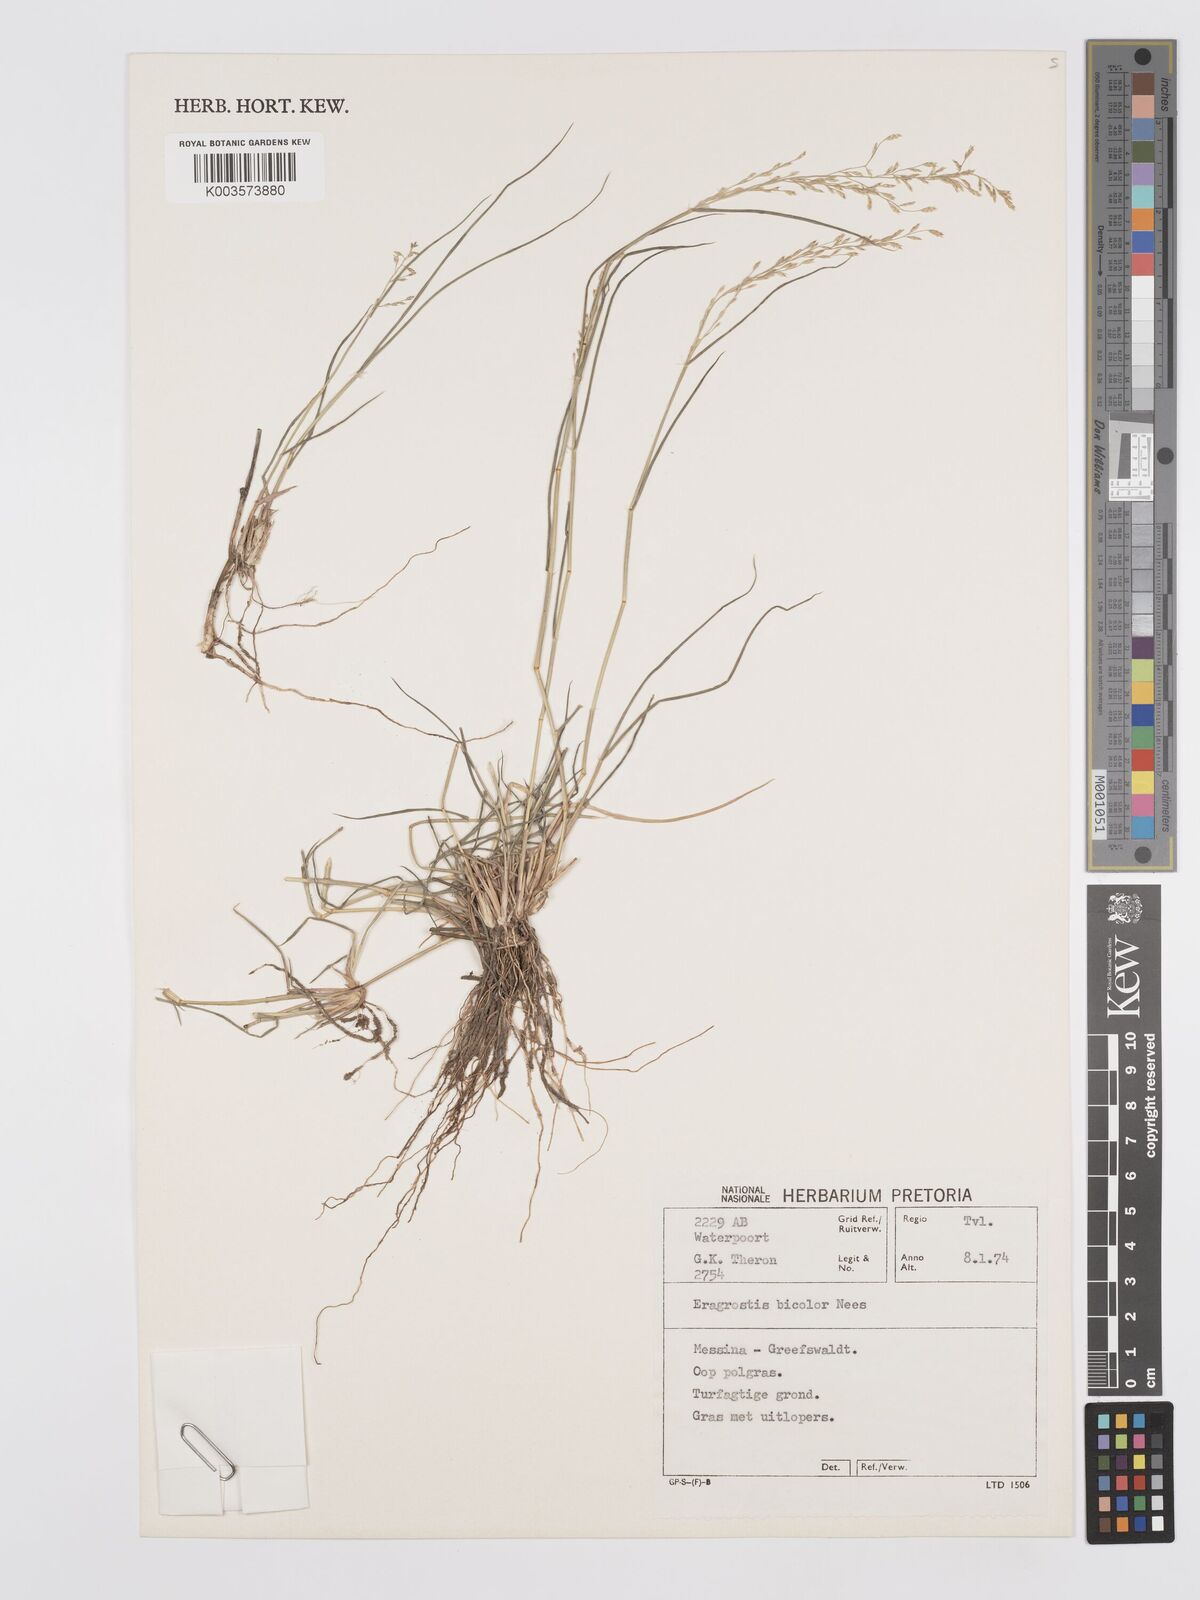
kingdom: Plantae
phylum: Tracheophyta
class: Liliopsida
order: Poales
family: Poaceae
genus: Eragrostis
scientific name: Eragrostis
